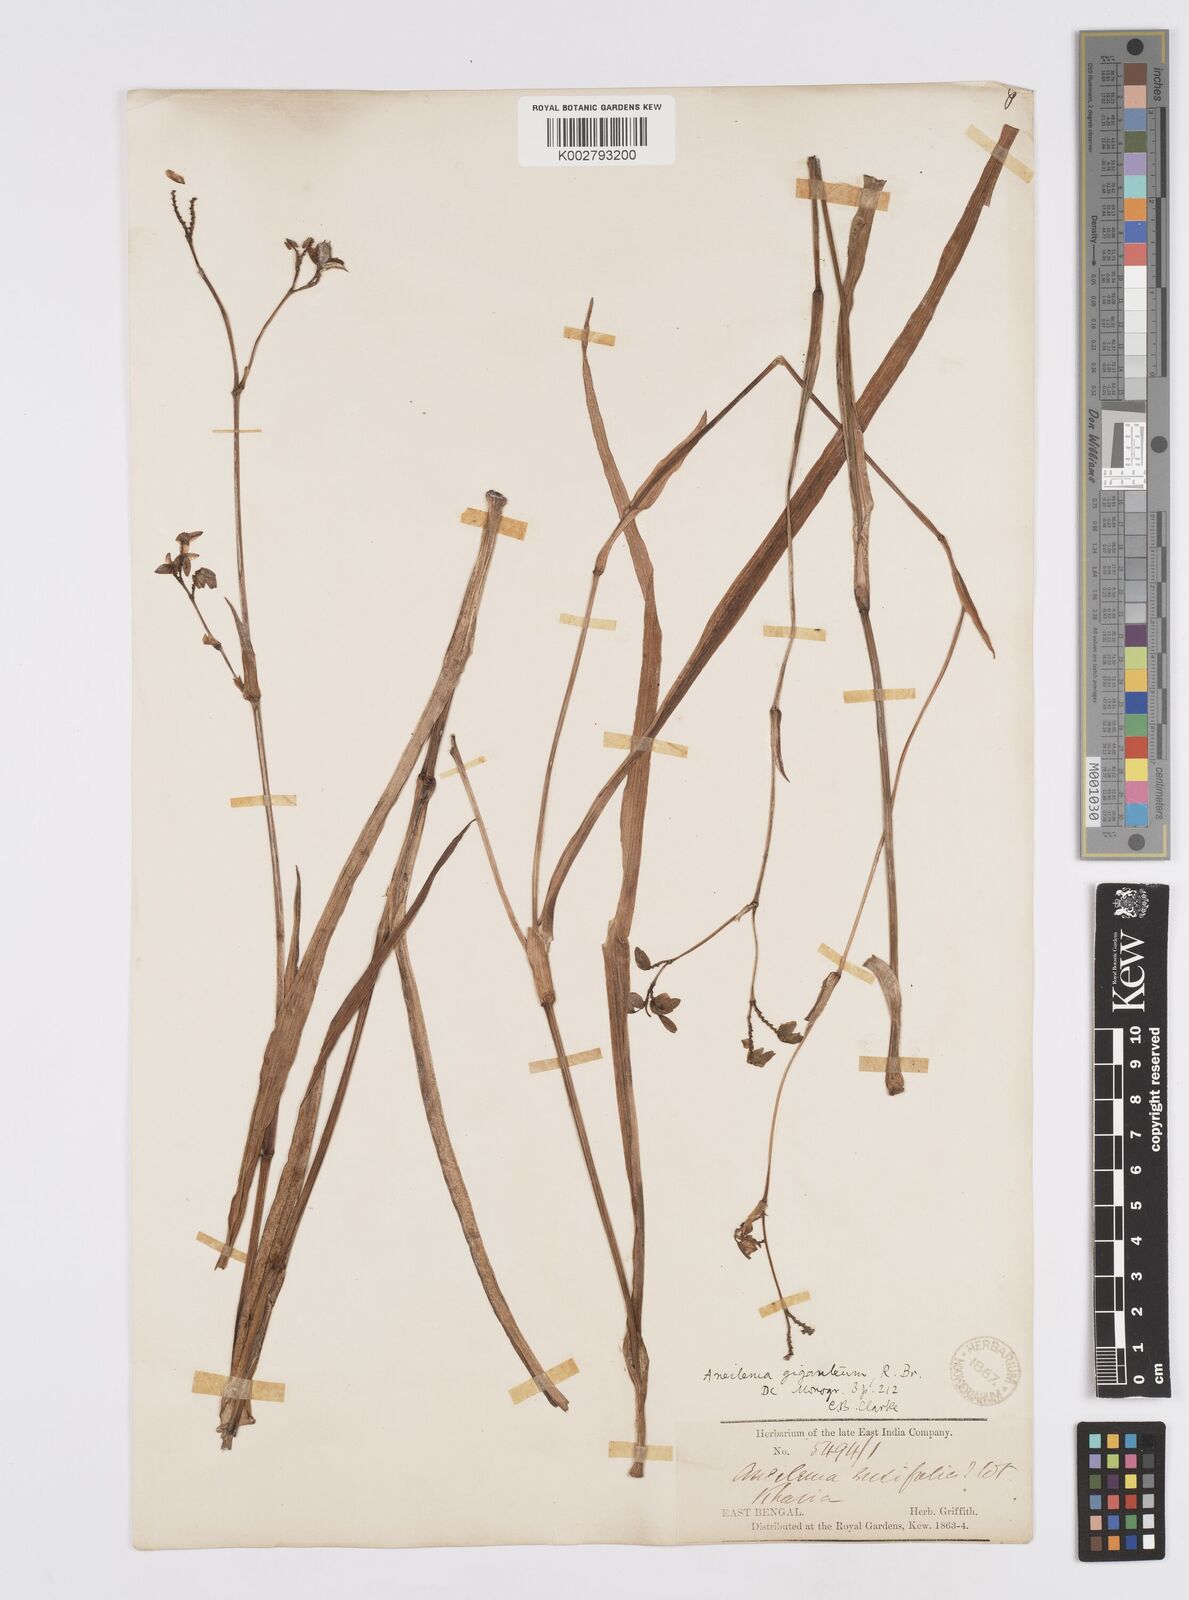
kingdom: Plantae
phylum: Tracheophyta
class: Liliopsida
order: Commelinales
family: Commelinaceae
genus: Murdannia
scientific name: Murdannia simplex
